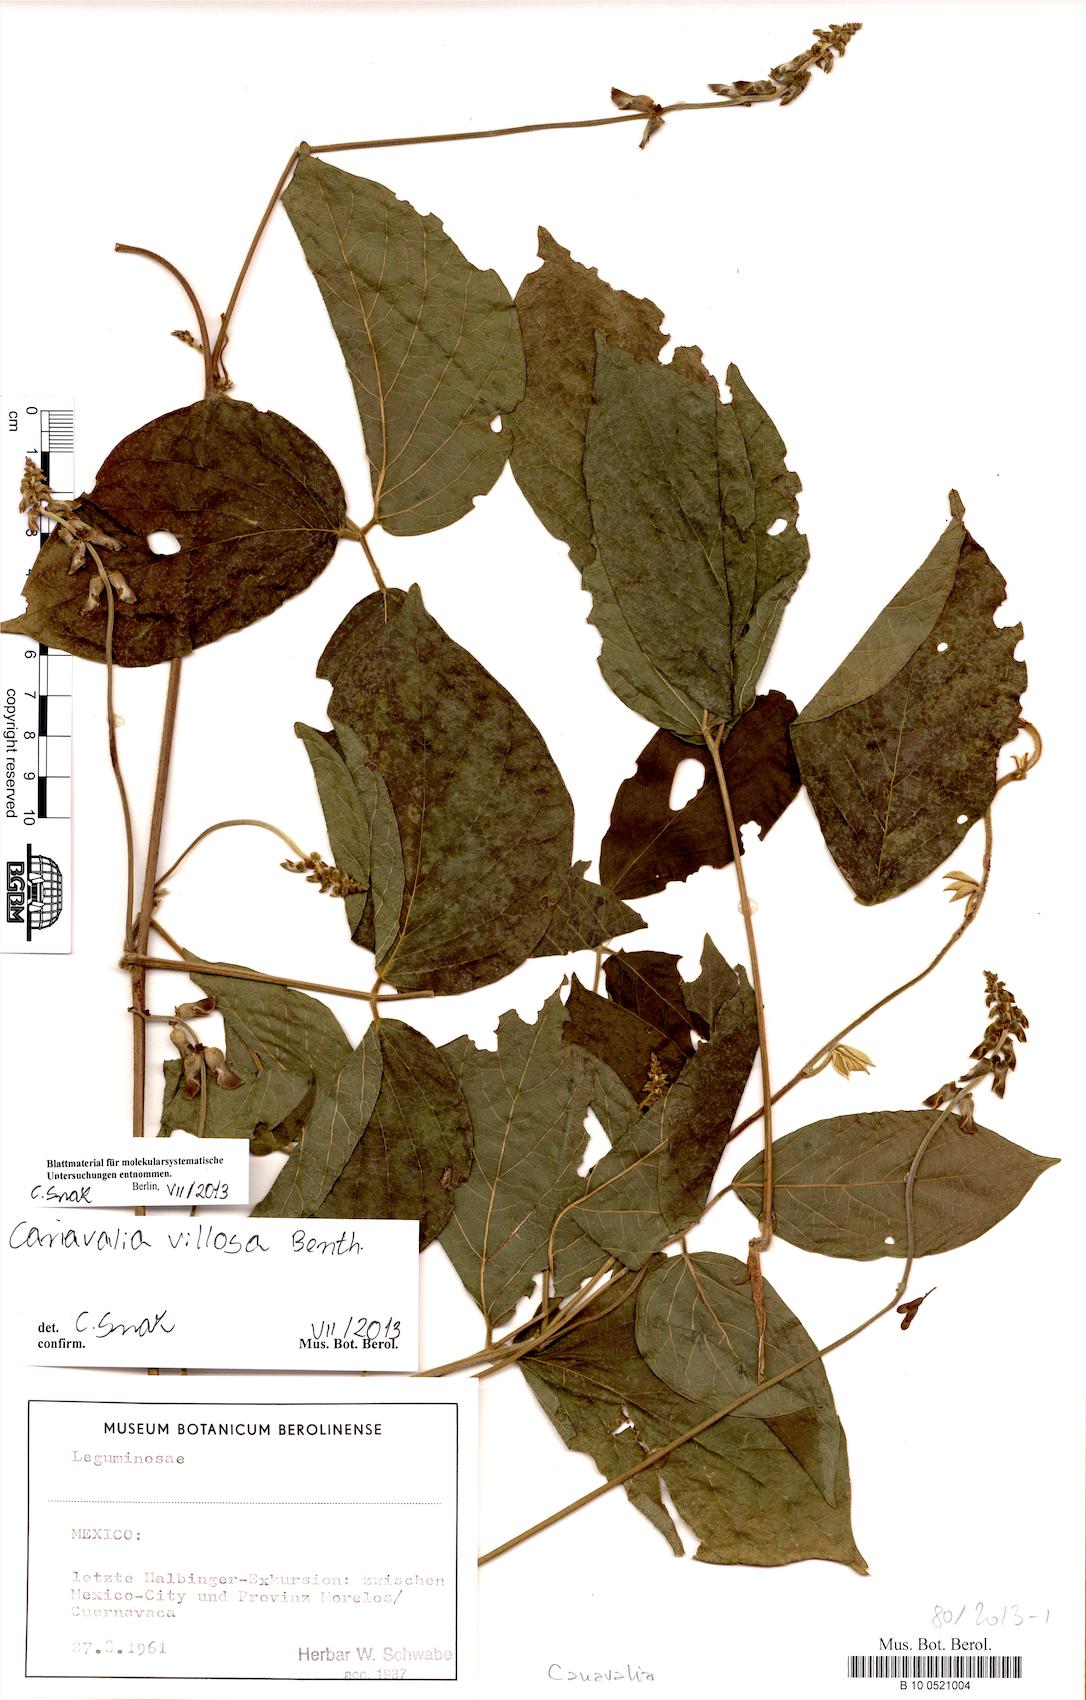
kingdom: Plantae
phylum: Tracheophyta
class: Magnoliopsida
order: Fabales
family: Fabaceae
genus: Canavalia
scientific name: Canavalia villosa
